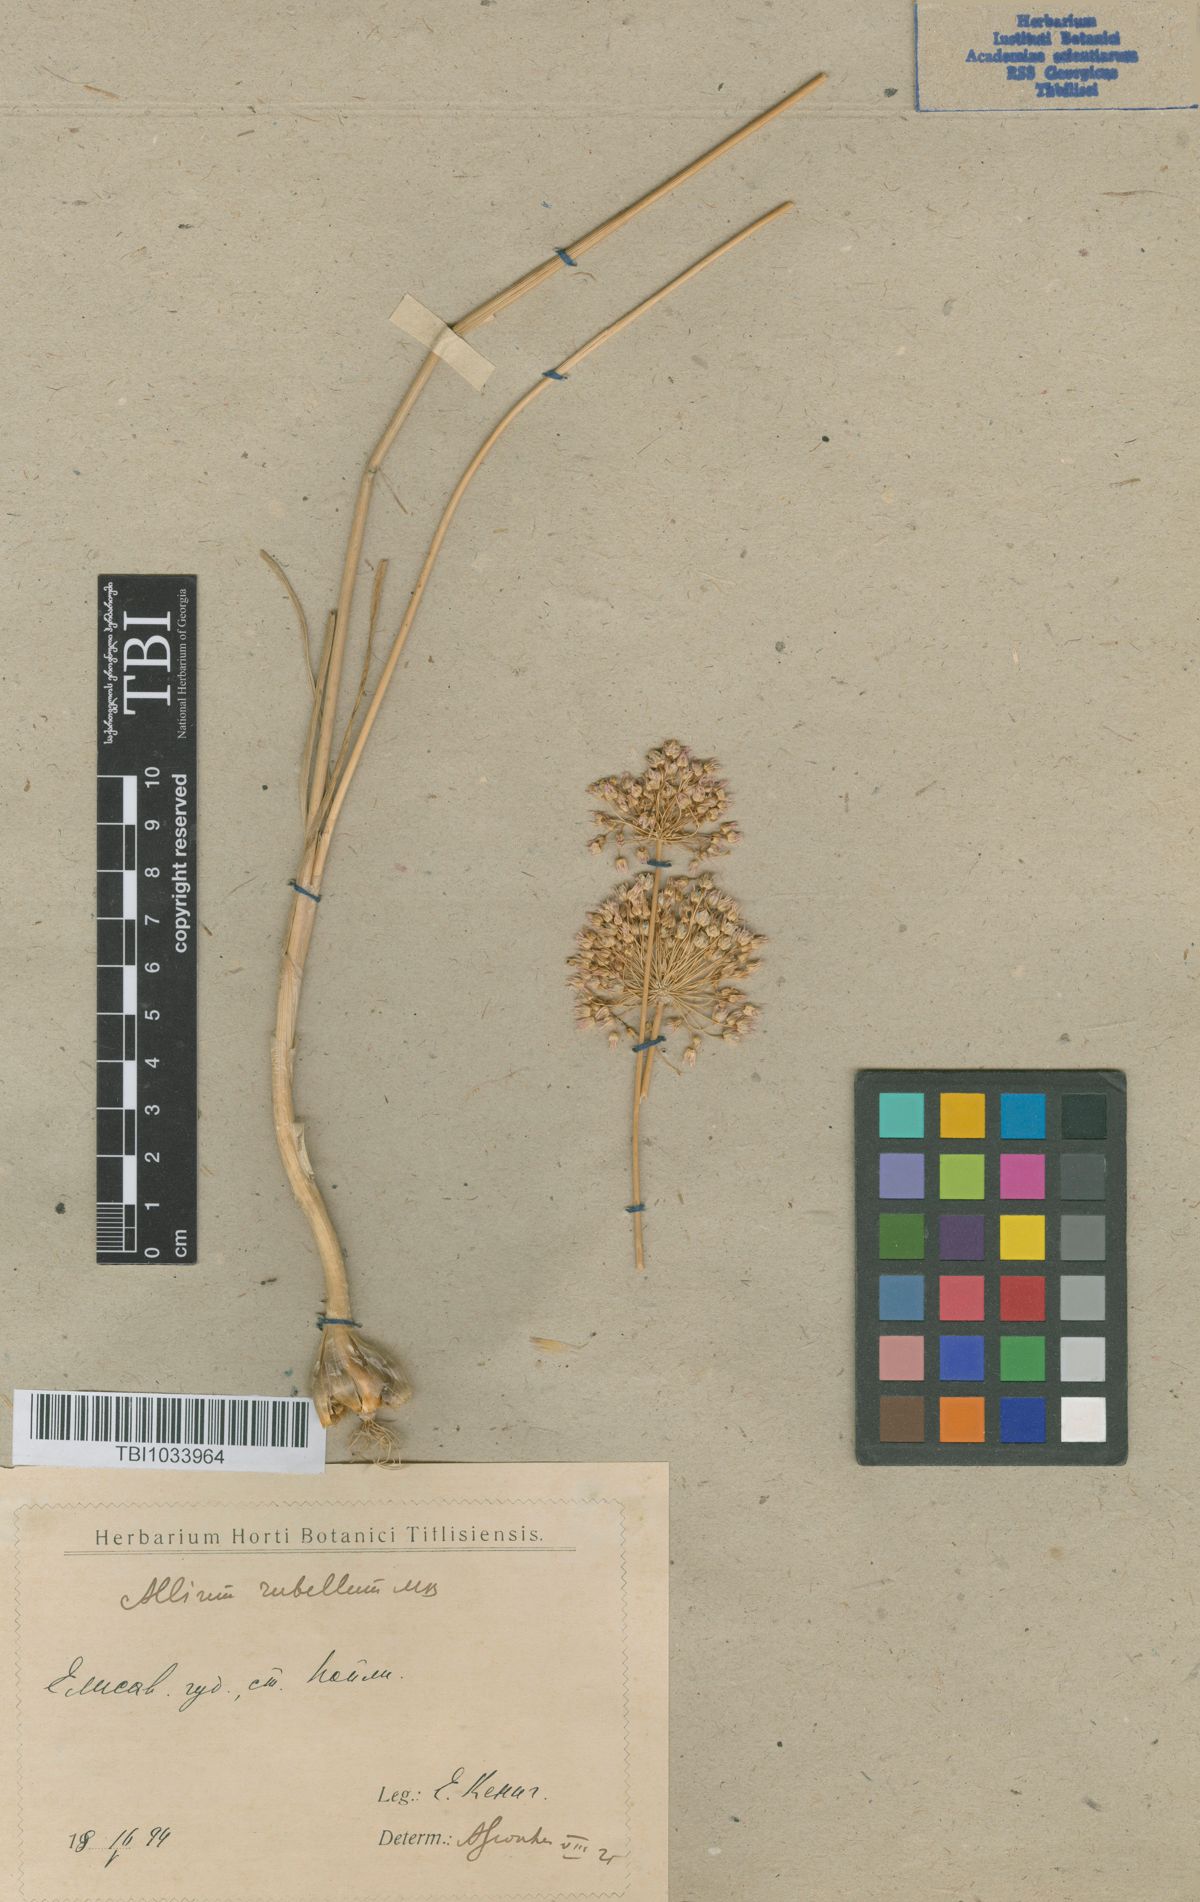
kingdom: Plantae
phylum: Tracheophyta
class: Liliopsida
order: Asparagales
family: Amaryllidaceae
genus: Allium
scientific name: Allium rubellum
